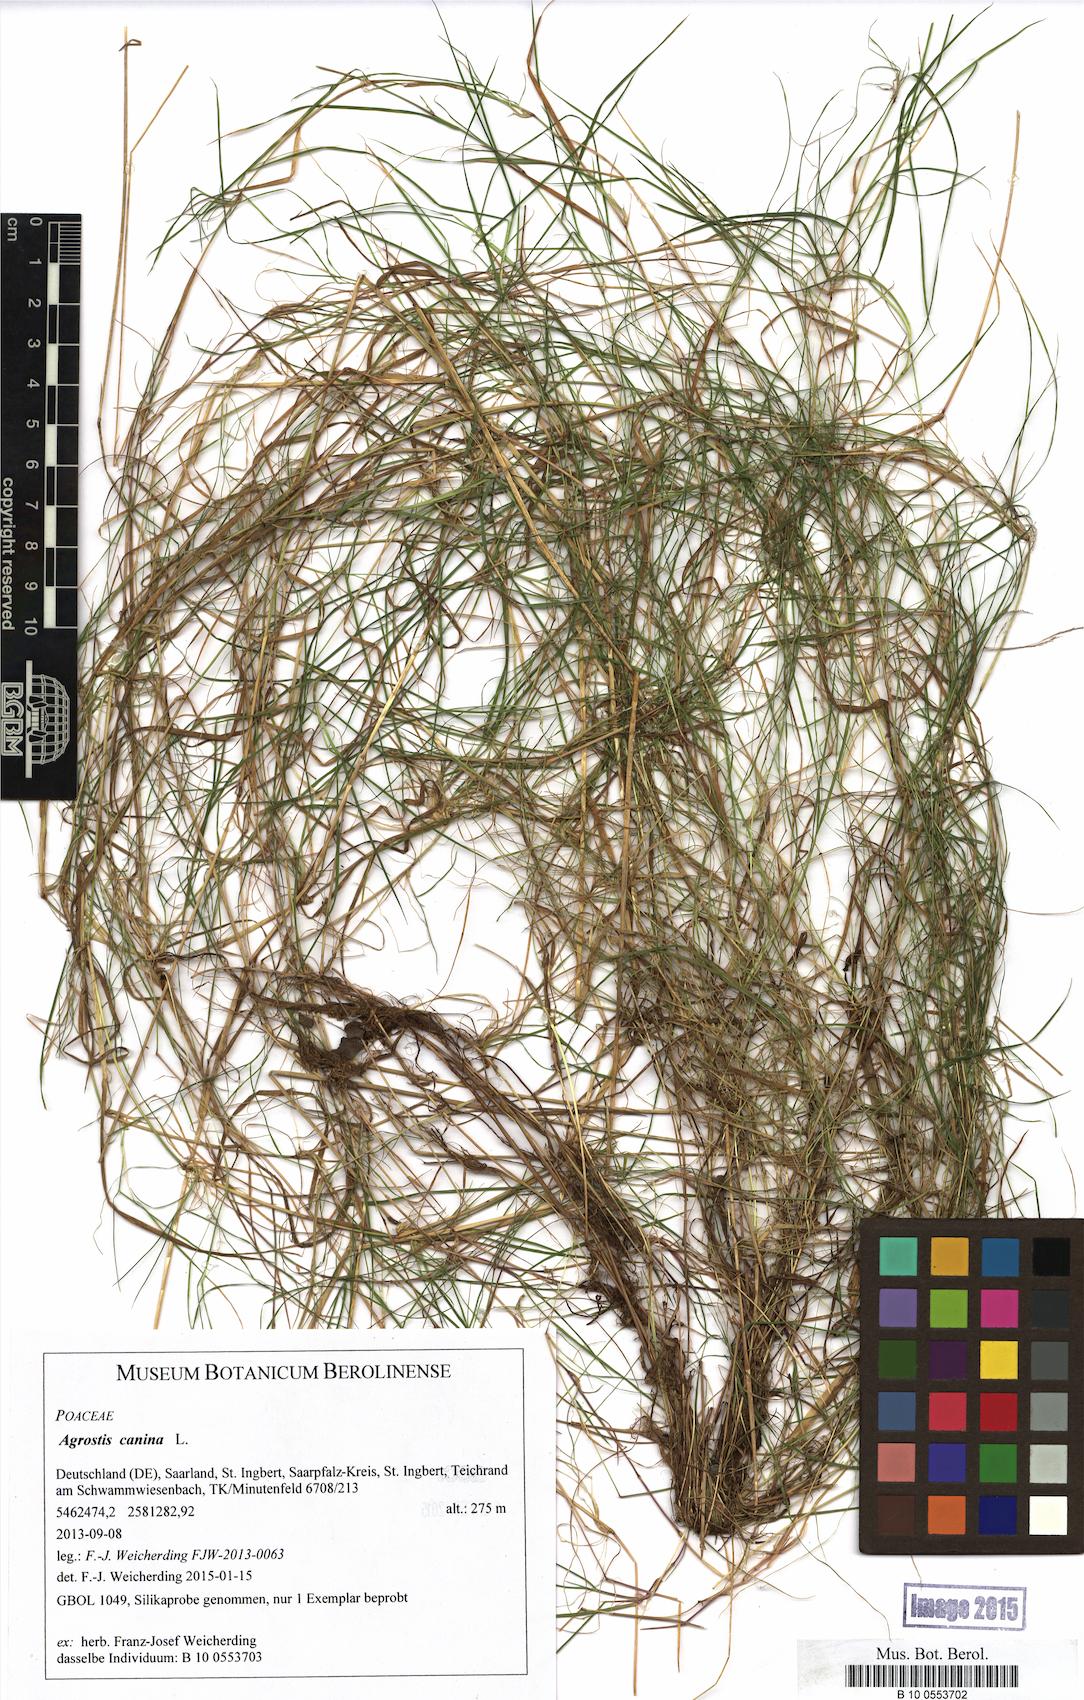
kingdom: Plantae
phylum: Tracheophyta
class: Liliopsida
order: Poales
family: Poaceae
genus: Agrostis
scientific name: Agrostis canina
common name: Velvet bent
